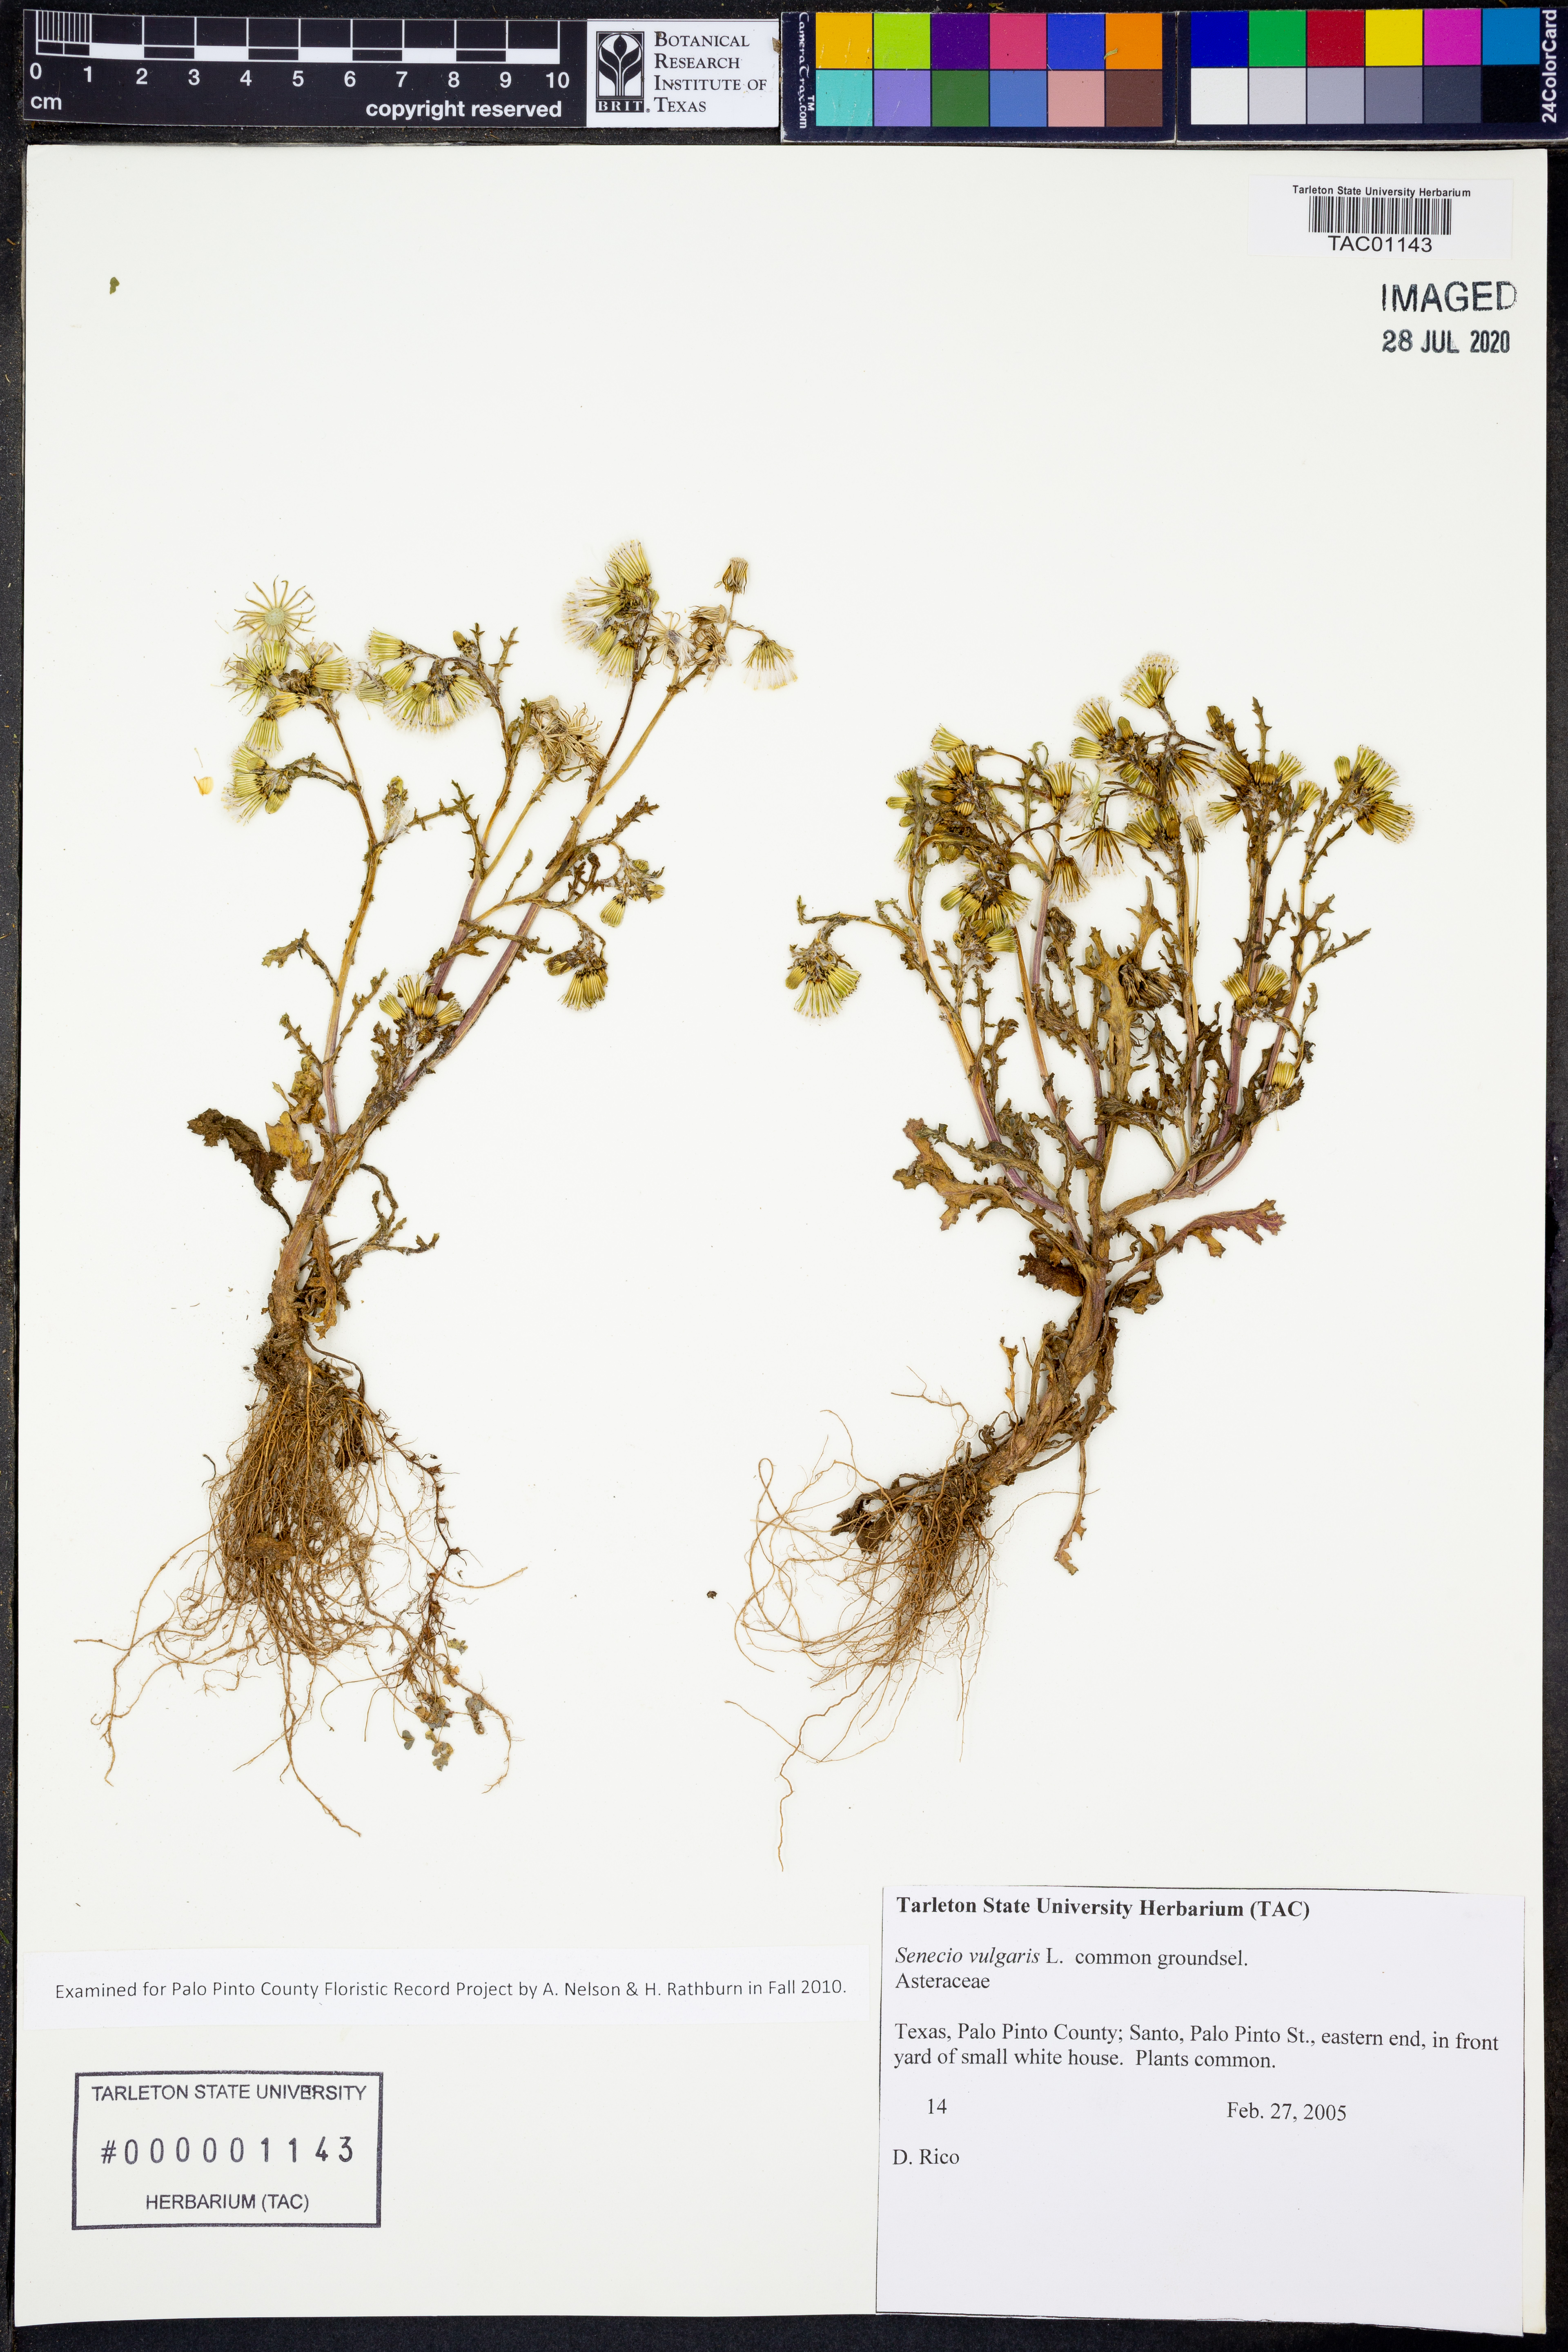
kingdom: Plantae
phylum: Tracheophyta
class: Magnoliopsida
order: Asterales
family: Asteraceae
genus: Senecio
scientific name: Senecio vulgaris
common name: Old-man-in-the-spring
